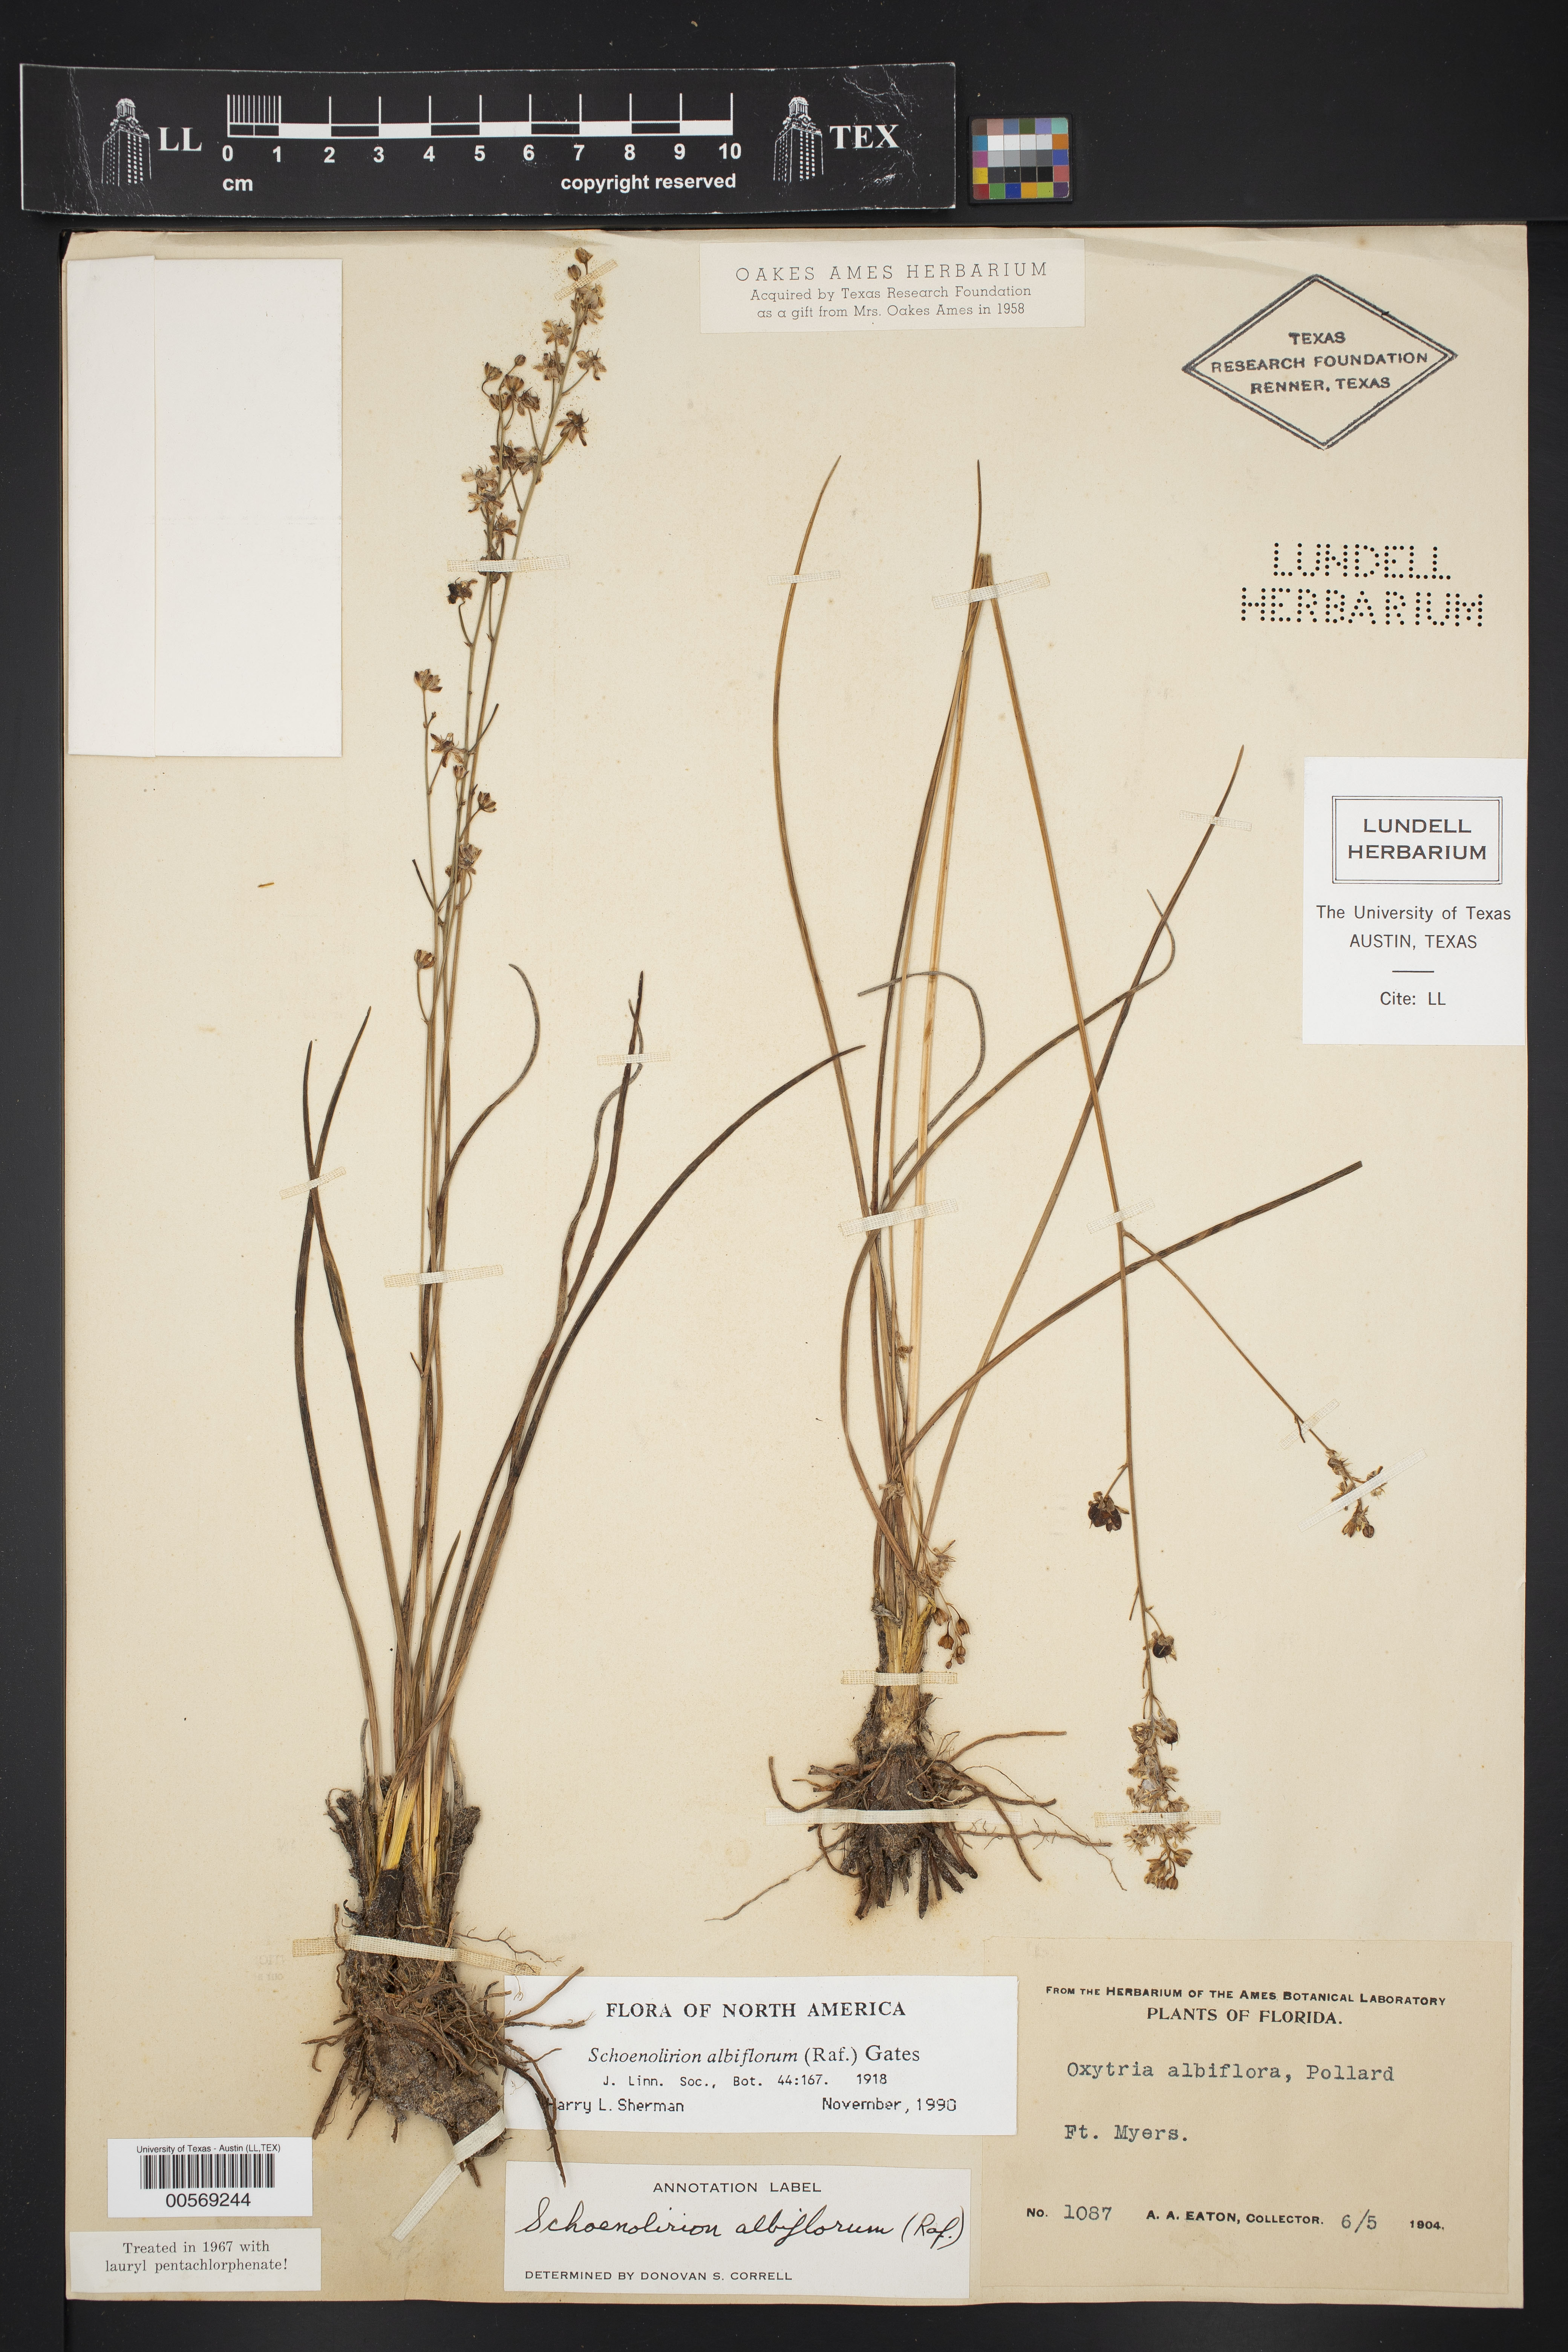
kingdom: Plantae
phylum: Tracheophyta
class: Liliopsida
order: Asparagales
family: Asparagaceae
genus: Schoenolirion
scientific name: Schoenolirion albiflorum
